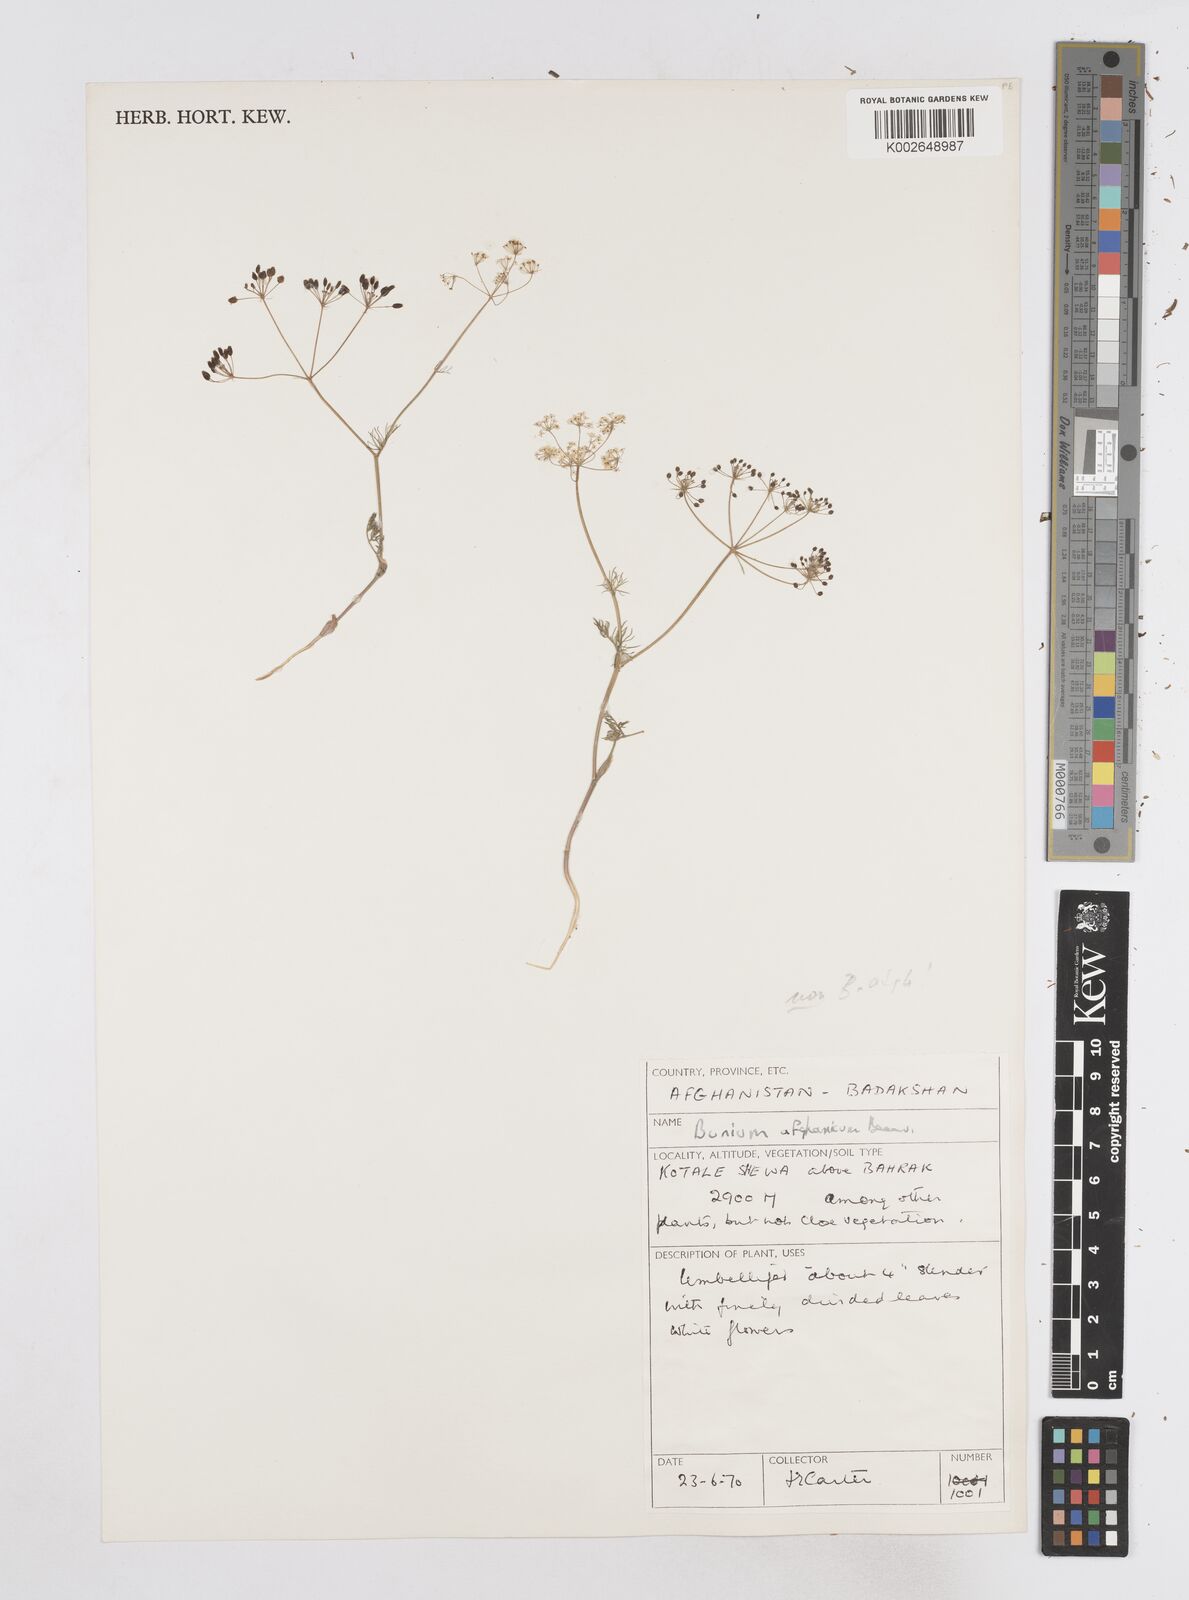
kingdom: Plantae
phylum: Tracheophyta
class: Magnoliopsida
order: Apiales
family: Apiaceae
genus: Elwendia
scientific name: Elwendia afghanica
